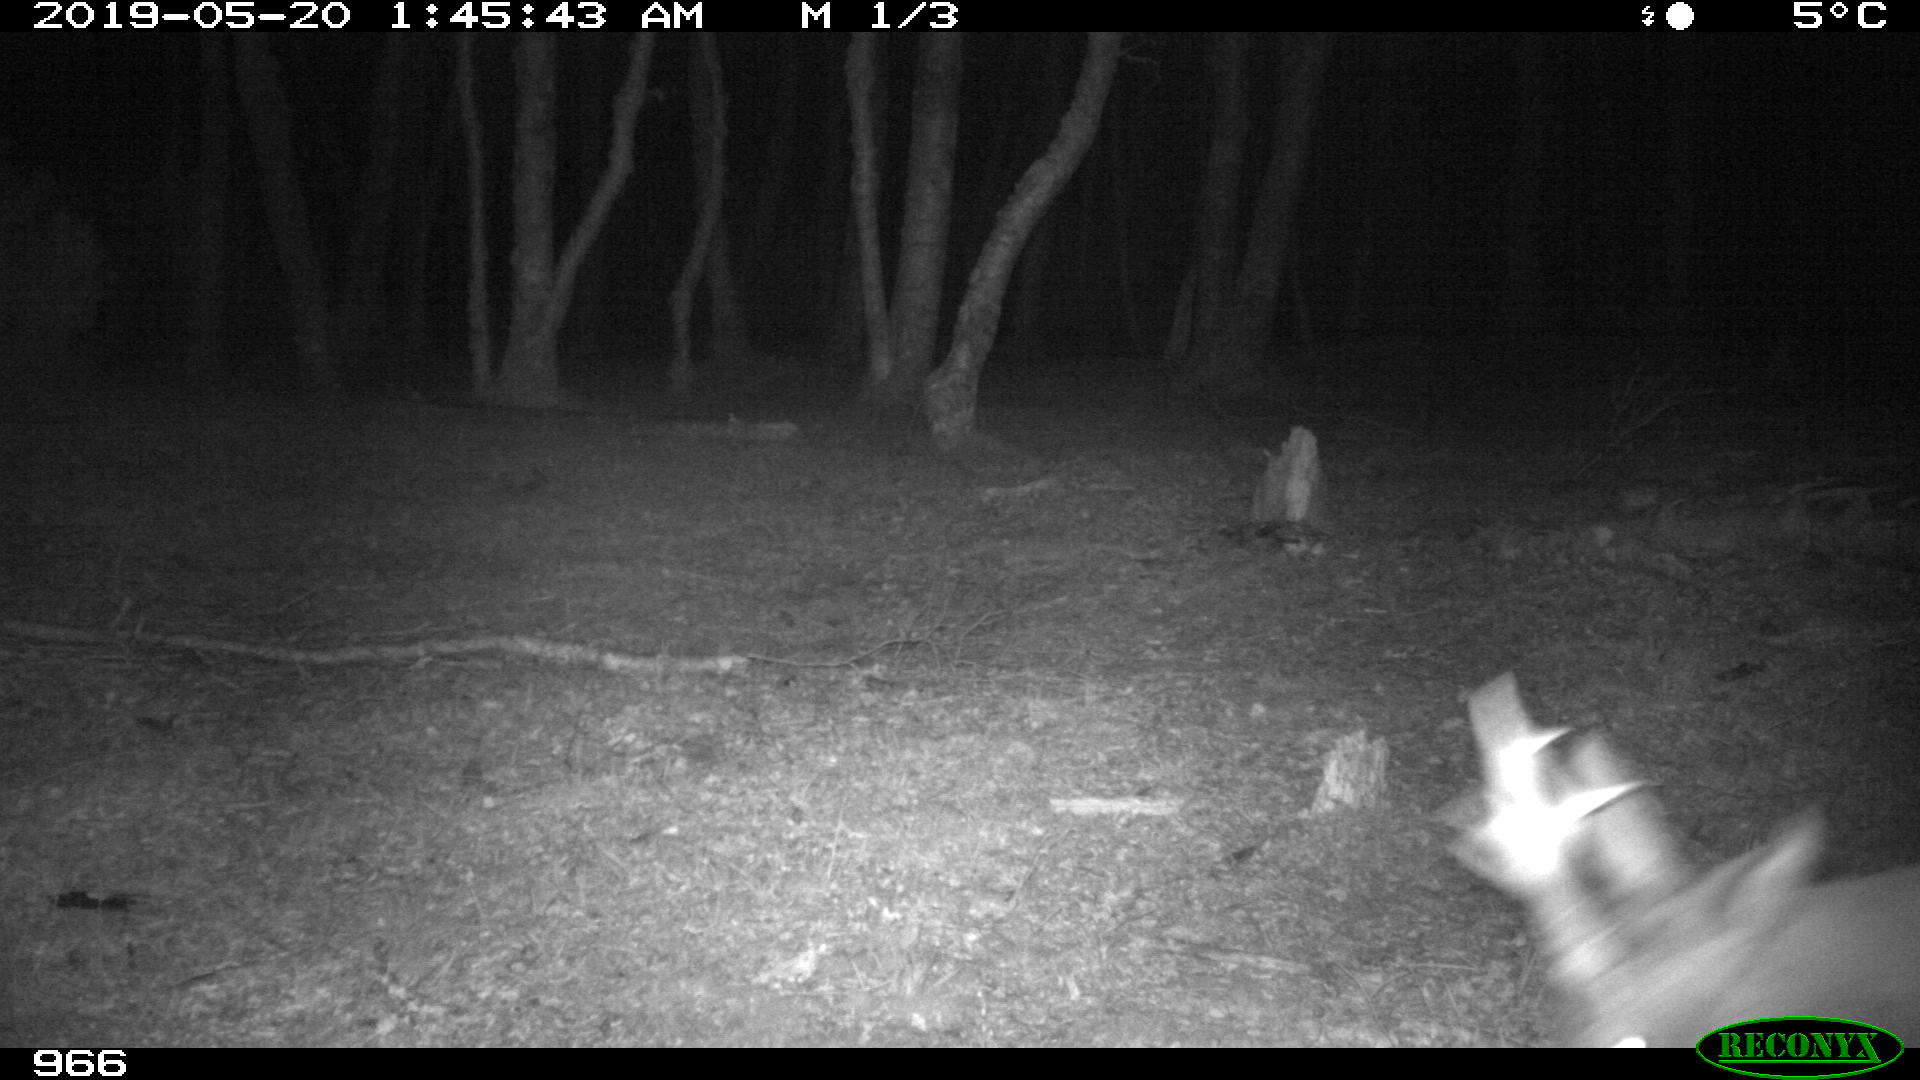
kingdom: Animalia
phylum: Chordata
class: Mammalia
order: Artiodactyla
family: Cervidae
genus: Capreolus
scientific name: Capreolus capreolus
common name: Western roe deer
